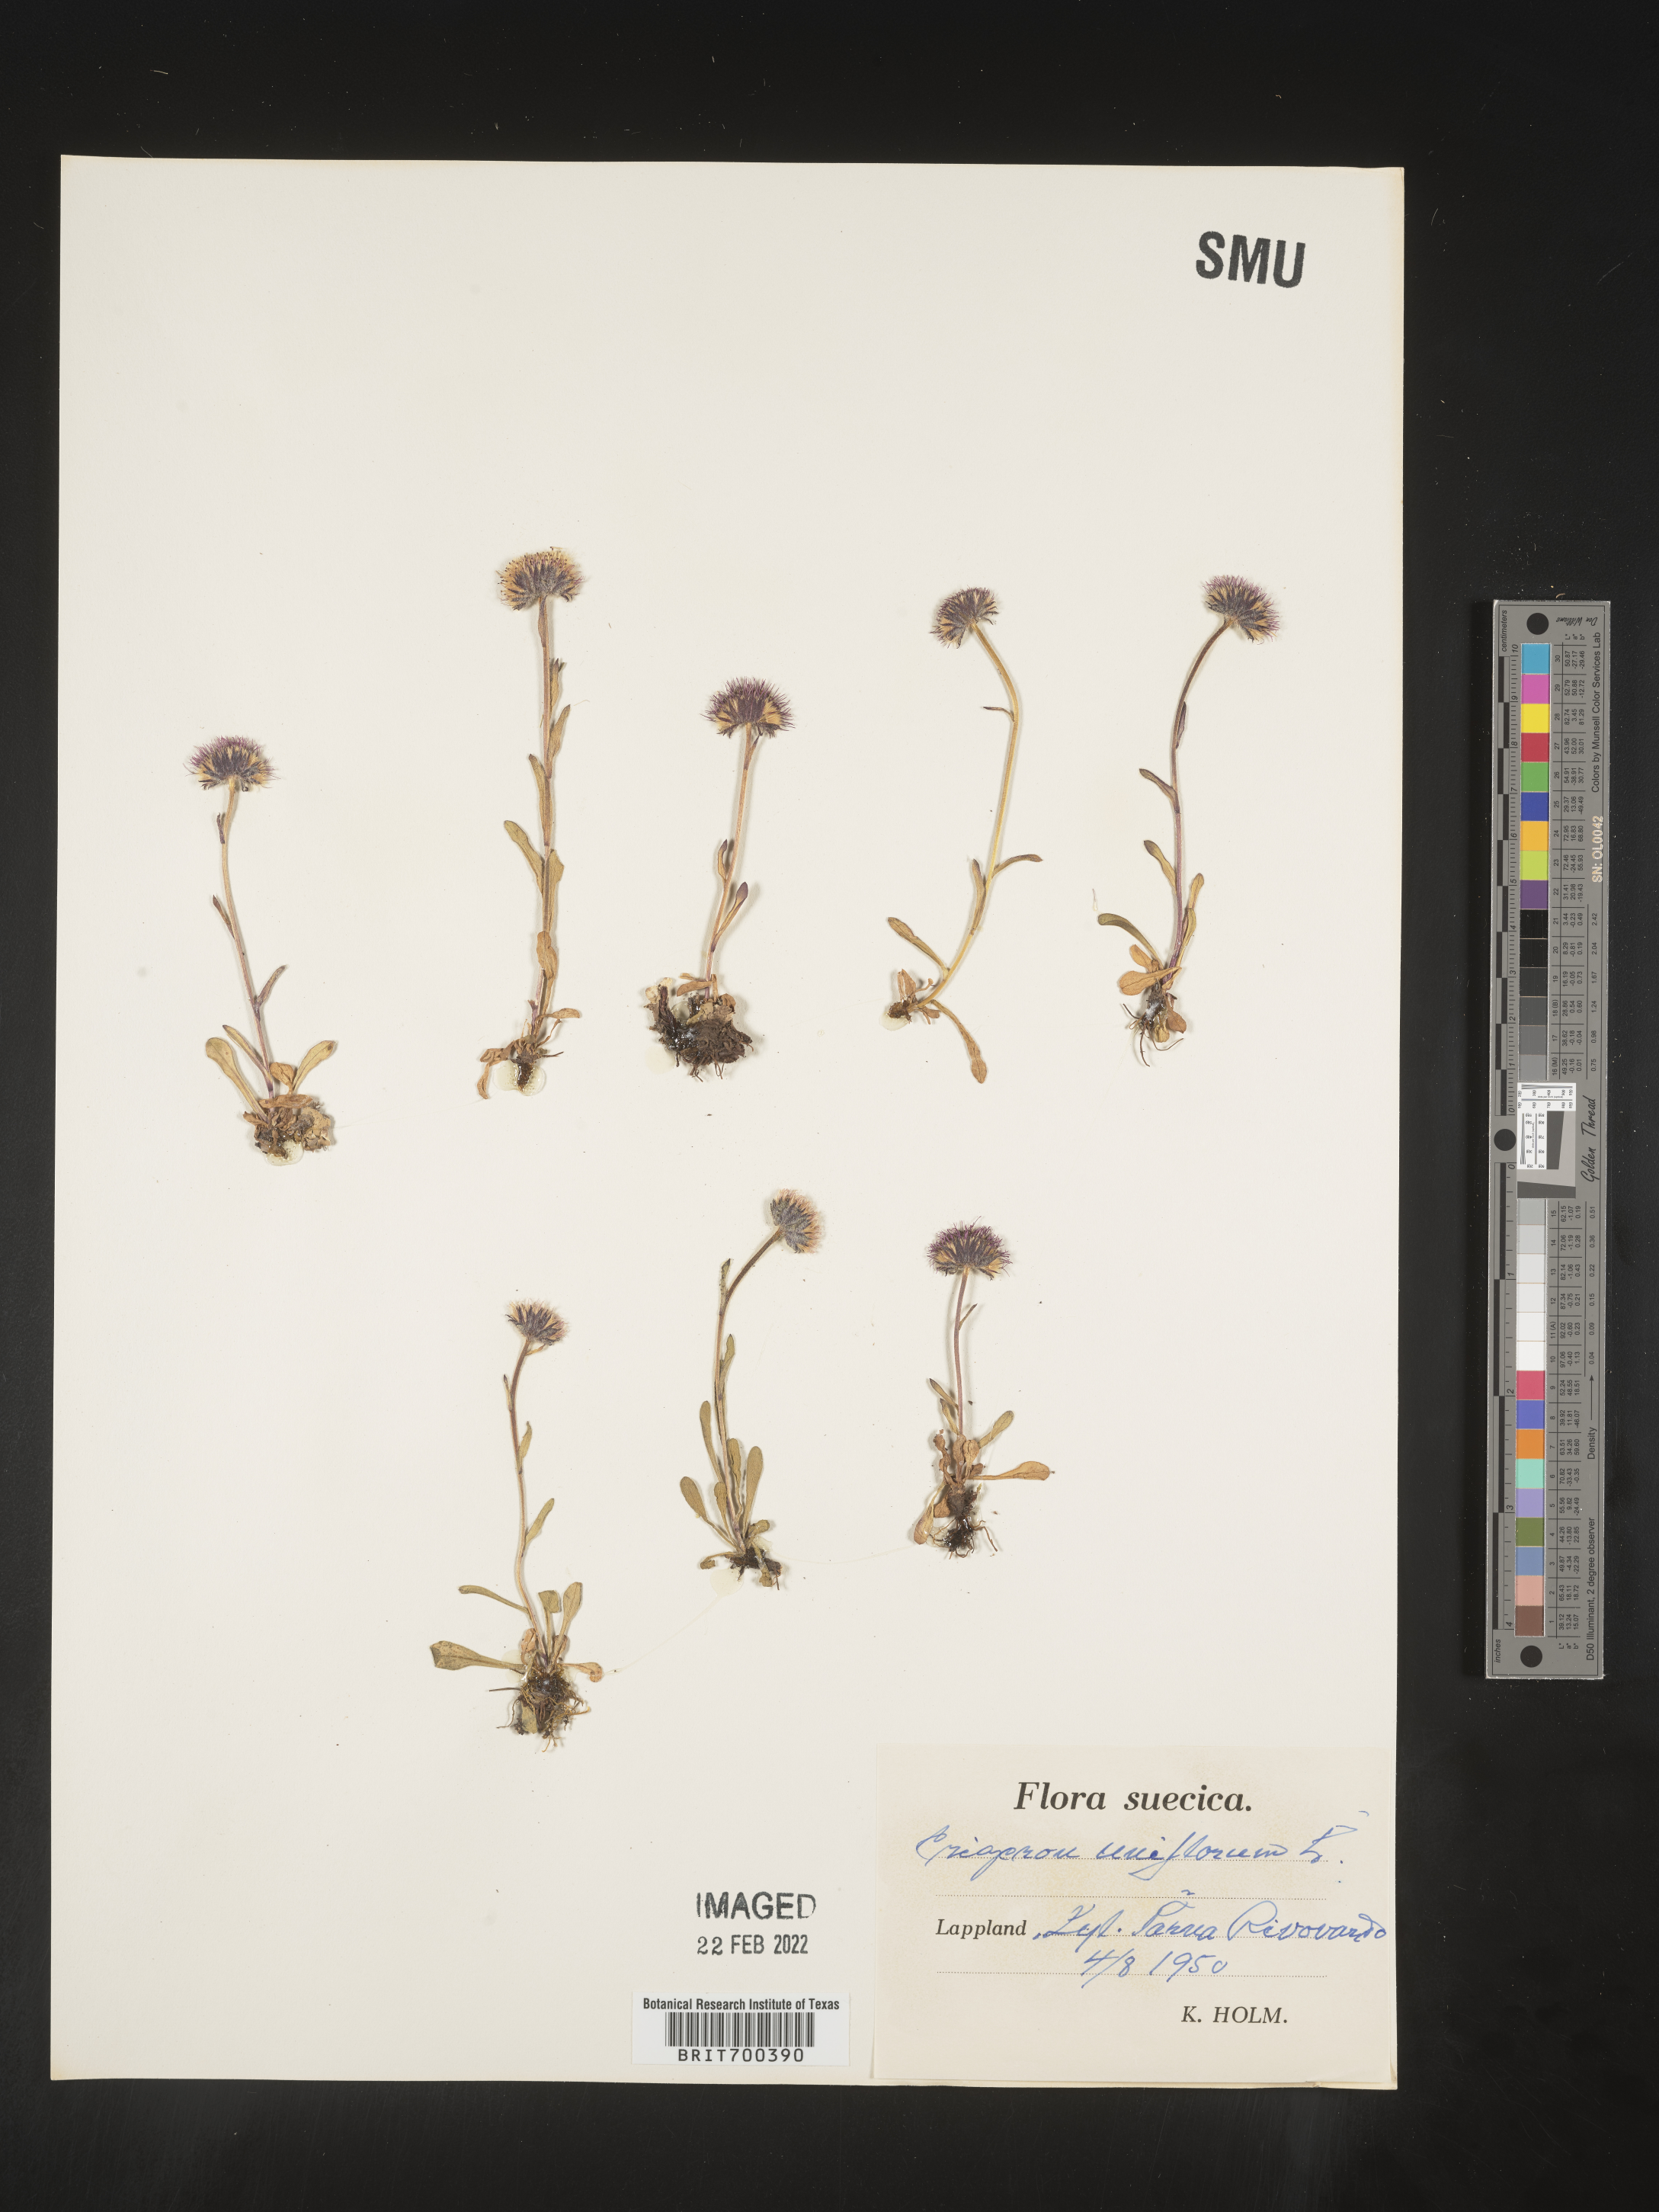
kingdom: Plantae
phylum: Tracheophyta
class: Magnoliopsida
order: Asterales
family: Asteraceae
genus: Erigeron
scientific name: Erigeron
